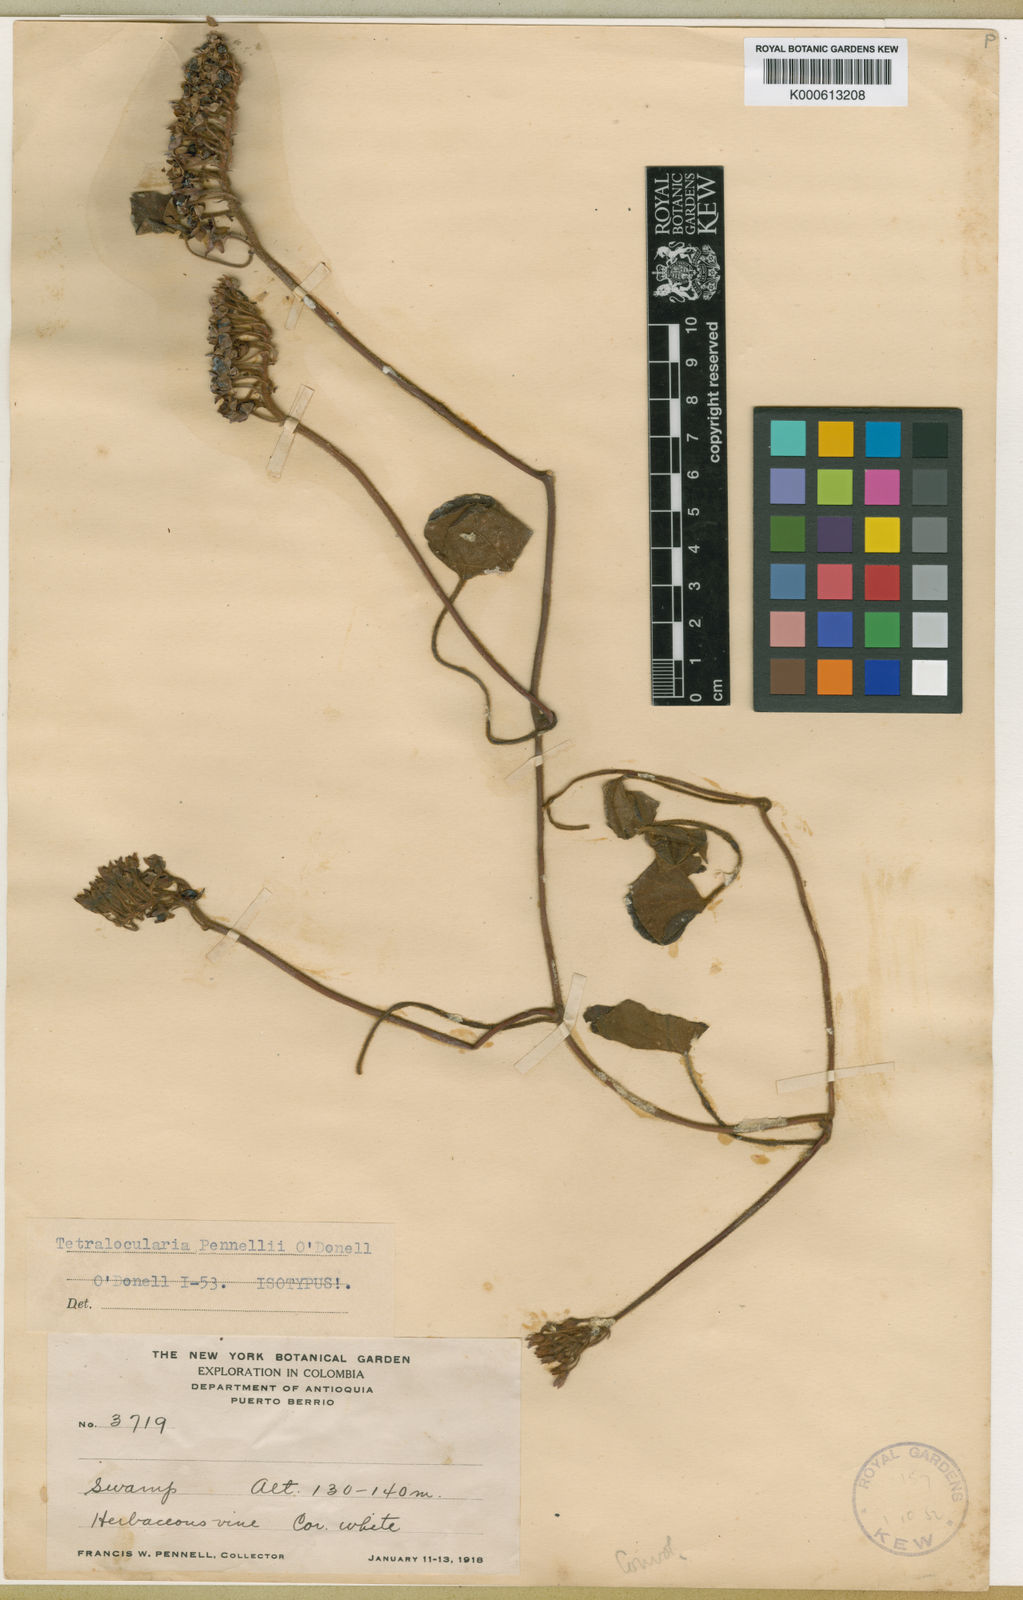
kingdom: Plantae
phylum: Tracheophyta
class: Magnoliopsida
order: Solanales
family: Convolvulaceae
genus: Tetralocularia
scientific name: Tetralocularia pennellii
